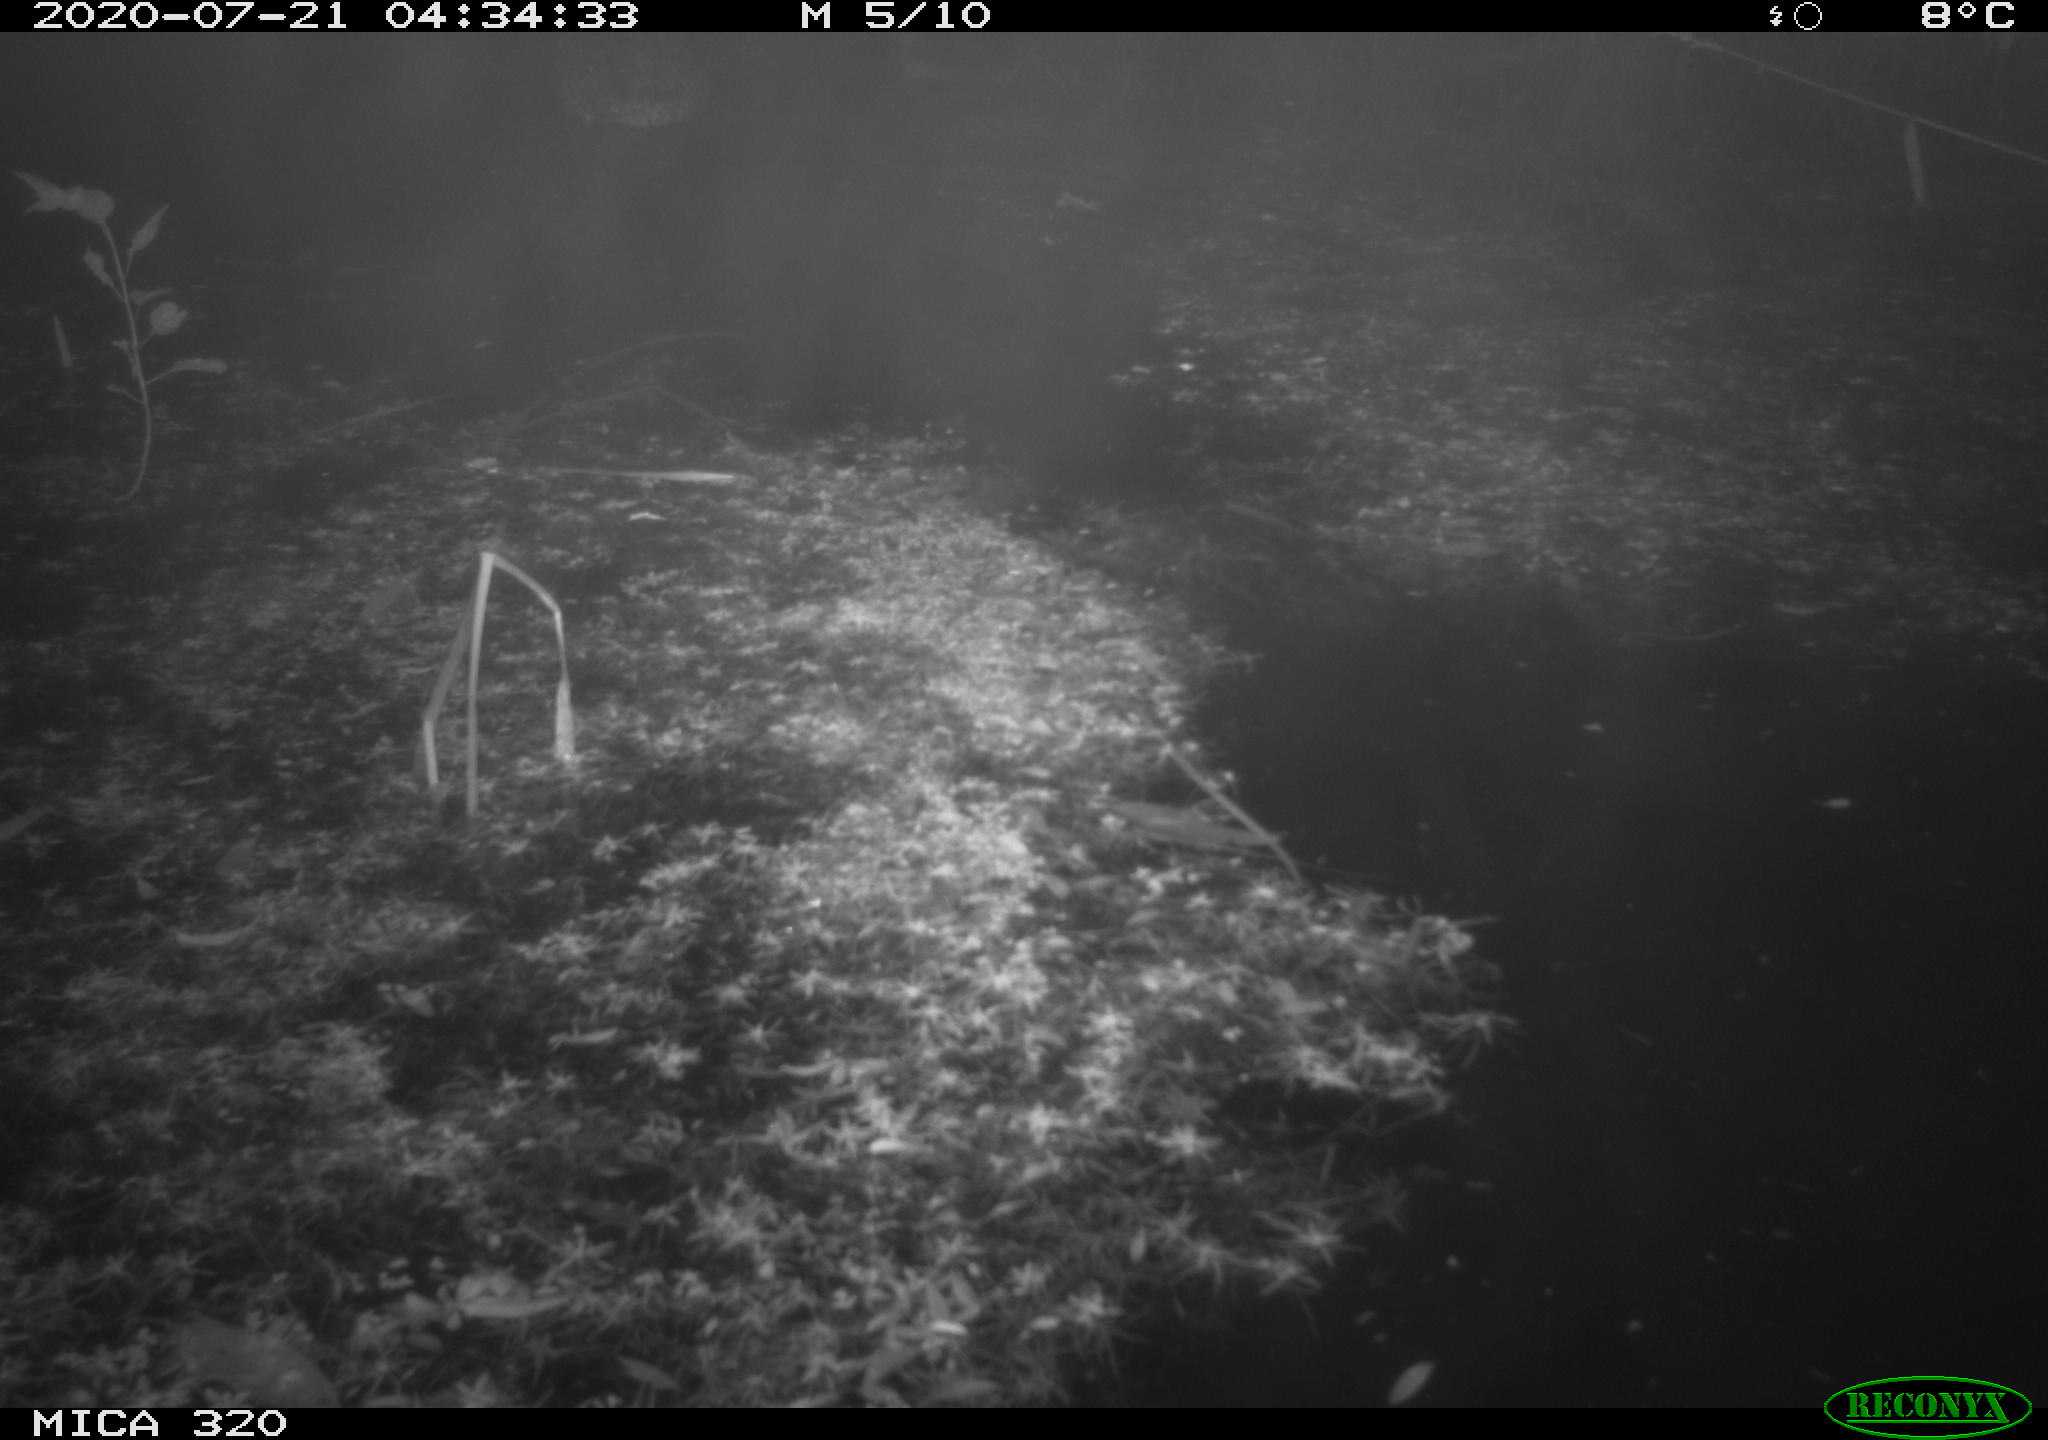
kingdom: Animalia
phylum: Chordata
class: Aves
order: Anseriformes
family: Anatidae
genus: Anas
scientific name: Anas platyrhynchos
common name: Mallard
